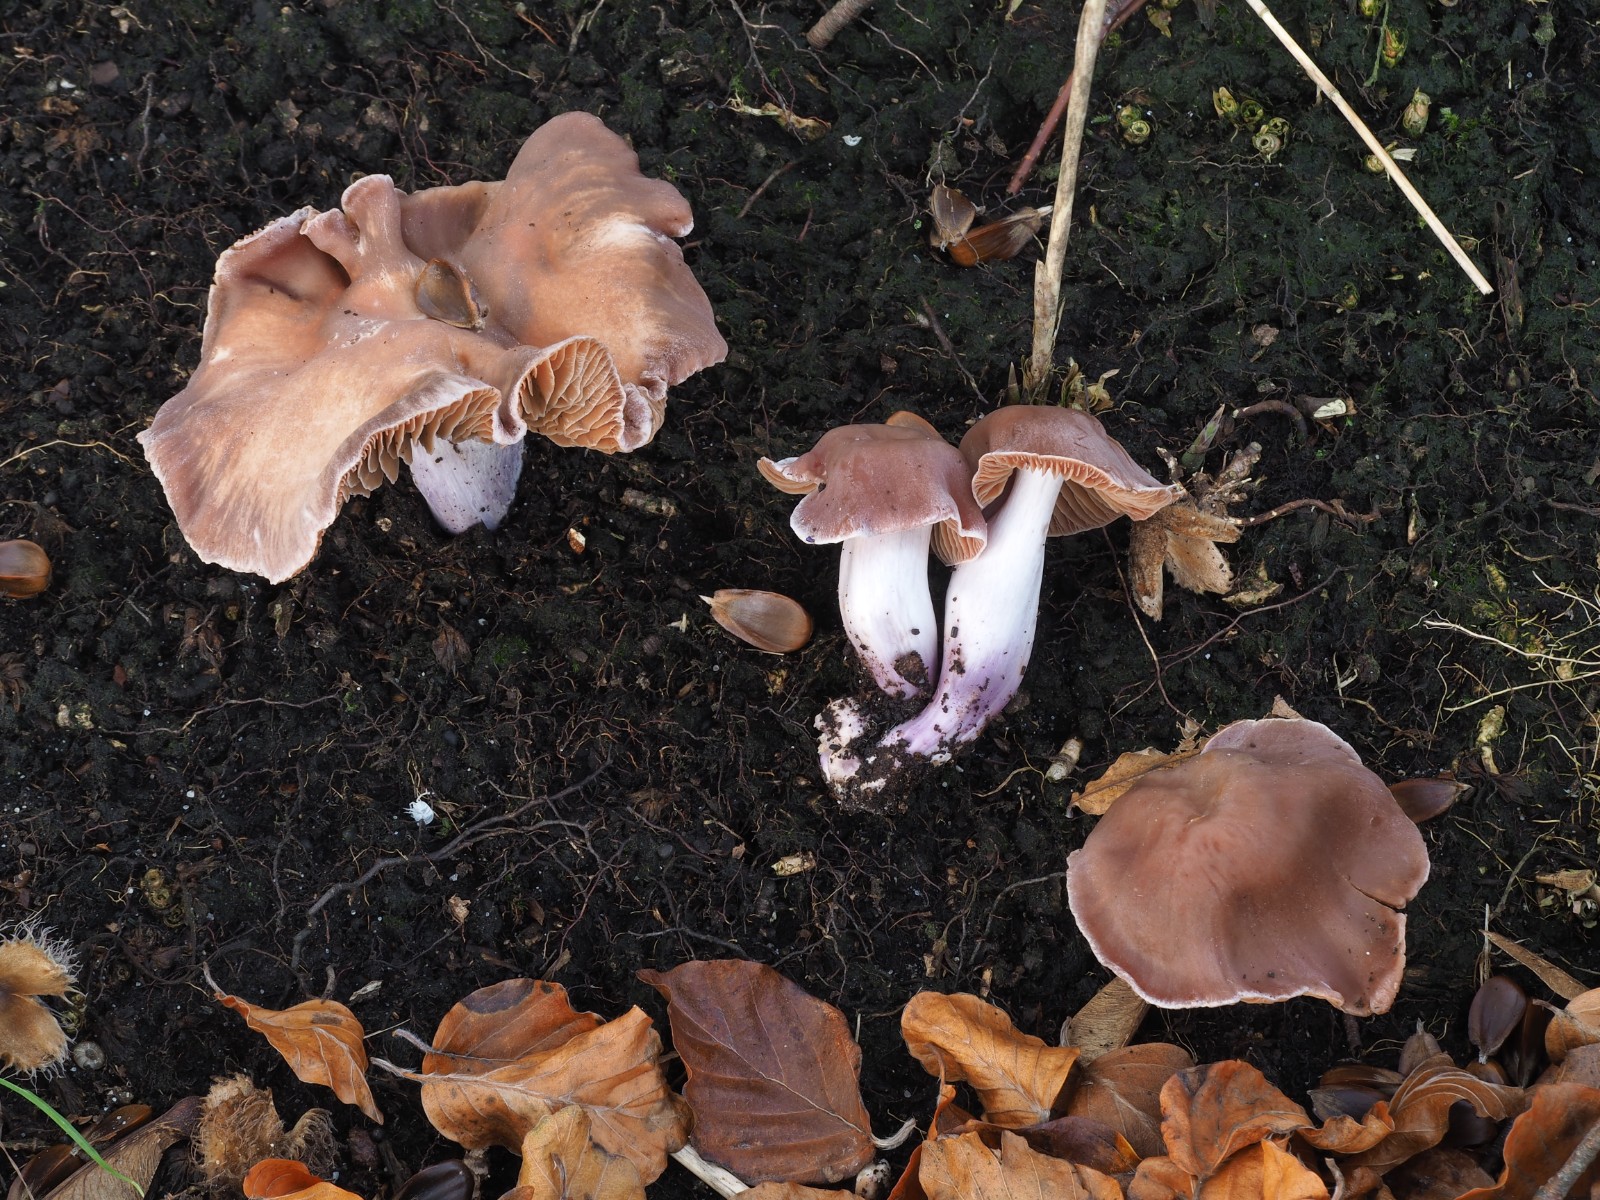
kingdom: Fungi
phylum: Basidiomycota
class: Agaricomycetes
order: Agaricales
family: Cortinariaceae
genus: Cortinarius
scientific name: Cortinarius cagei
